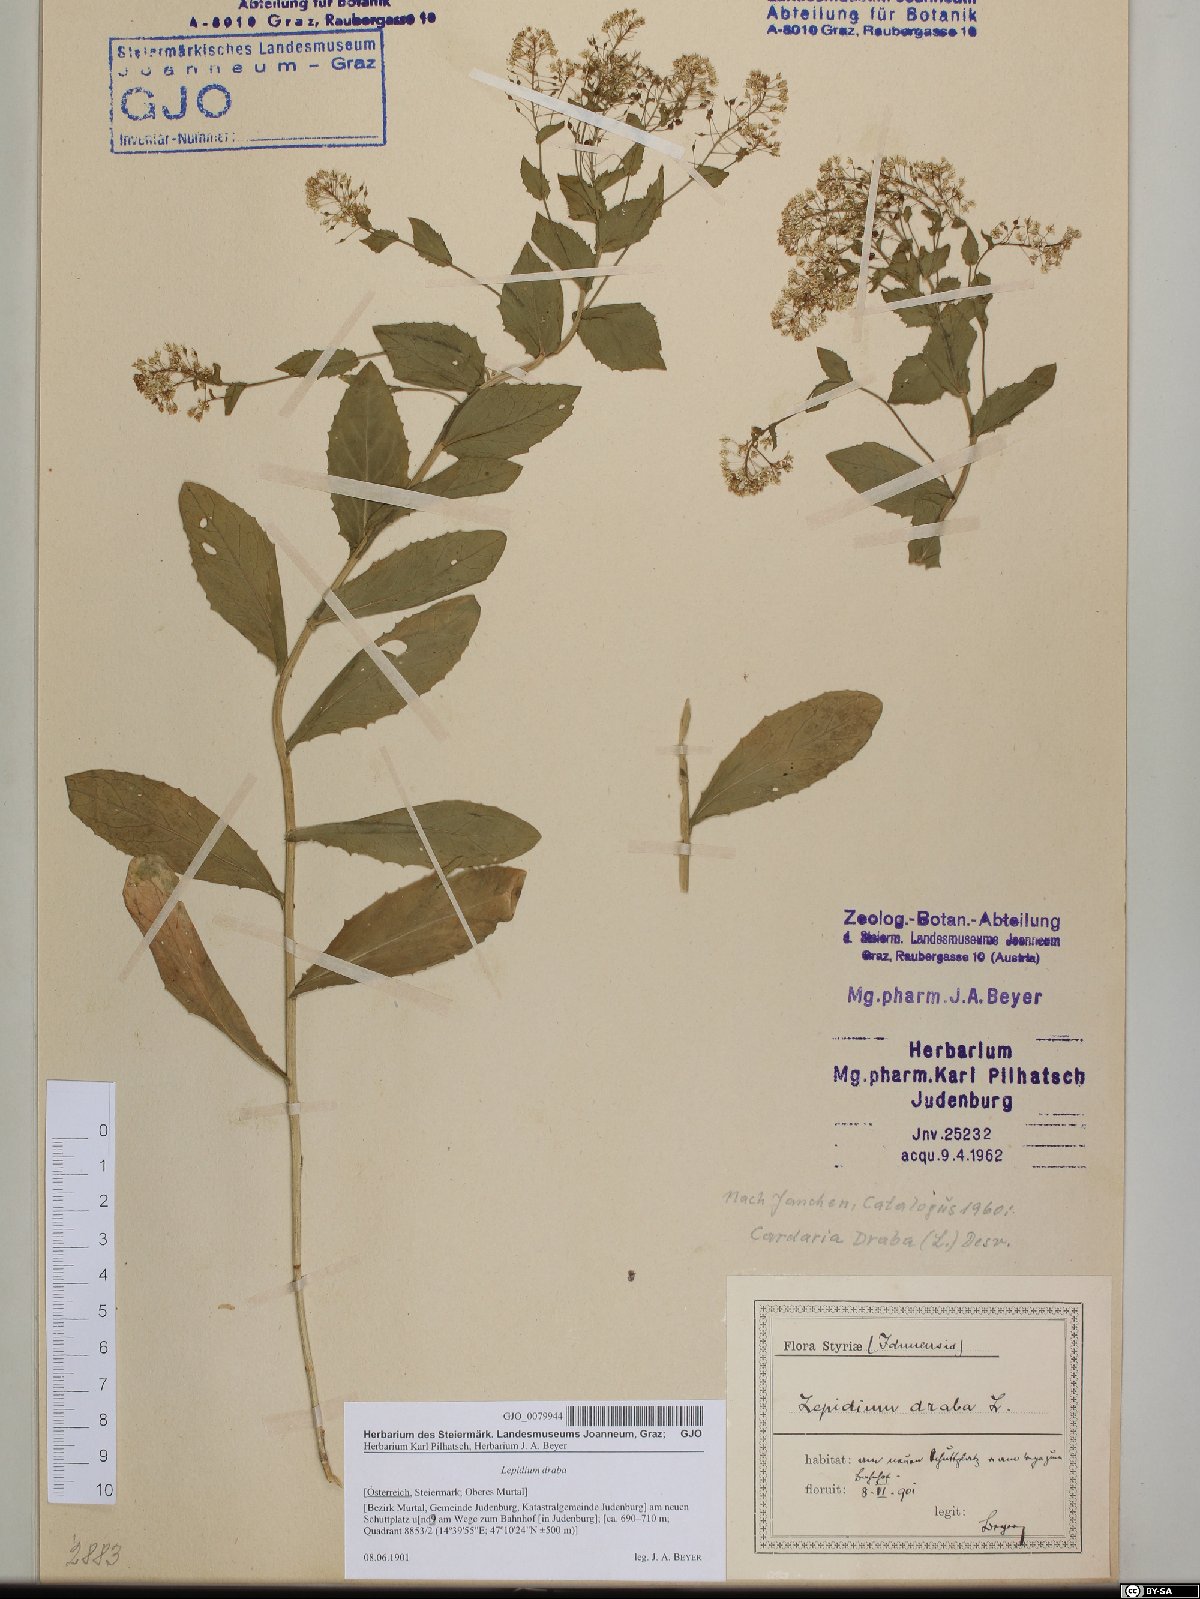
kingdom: Plantae
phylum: Tracheophyta
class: Magnoliopsida
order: Brassicales
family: Brassicaceae
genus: Lepidium
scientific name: Lepidium draba
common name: Hoary cress
